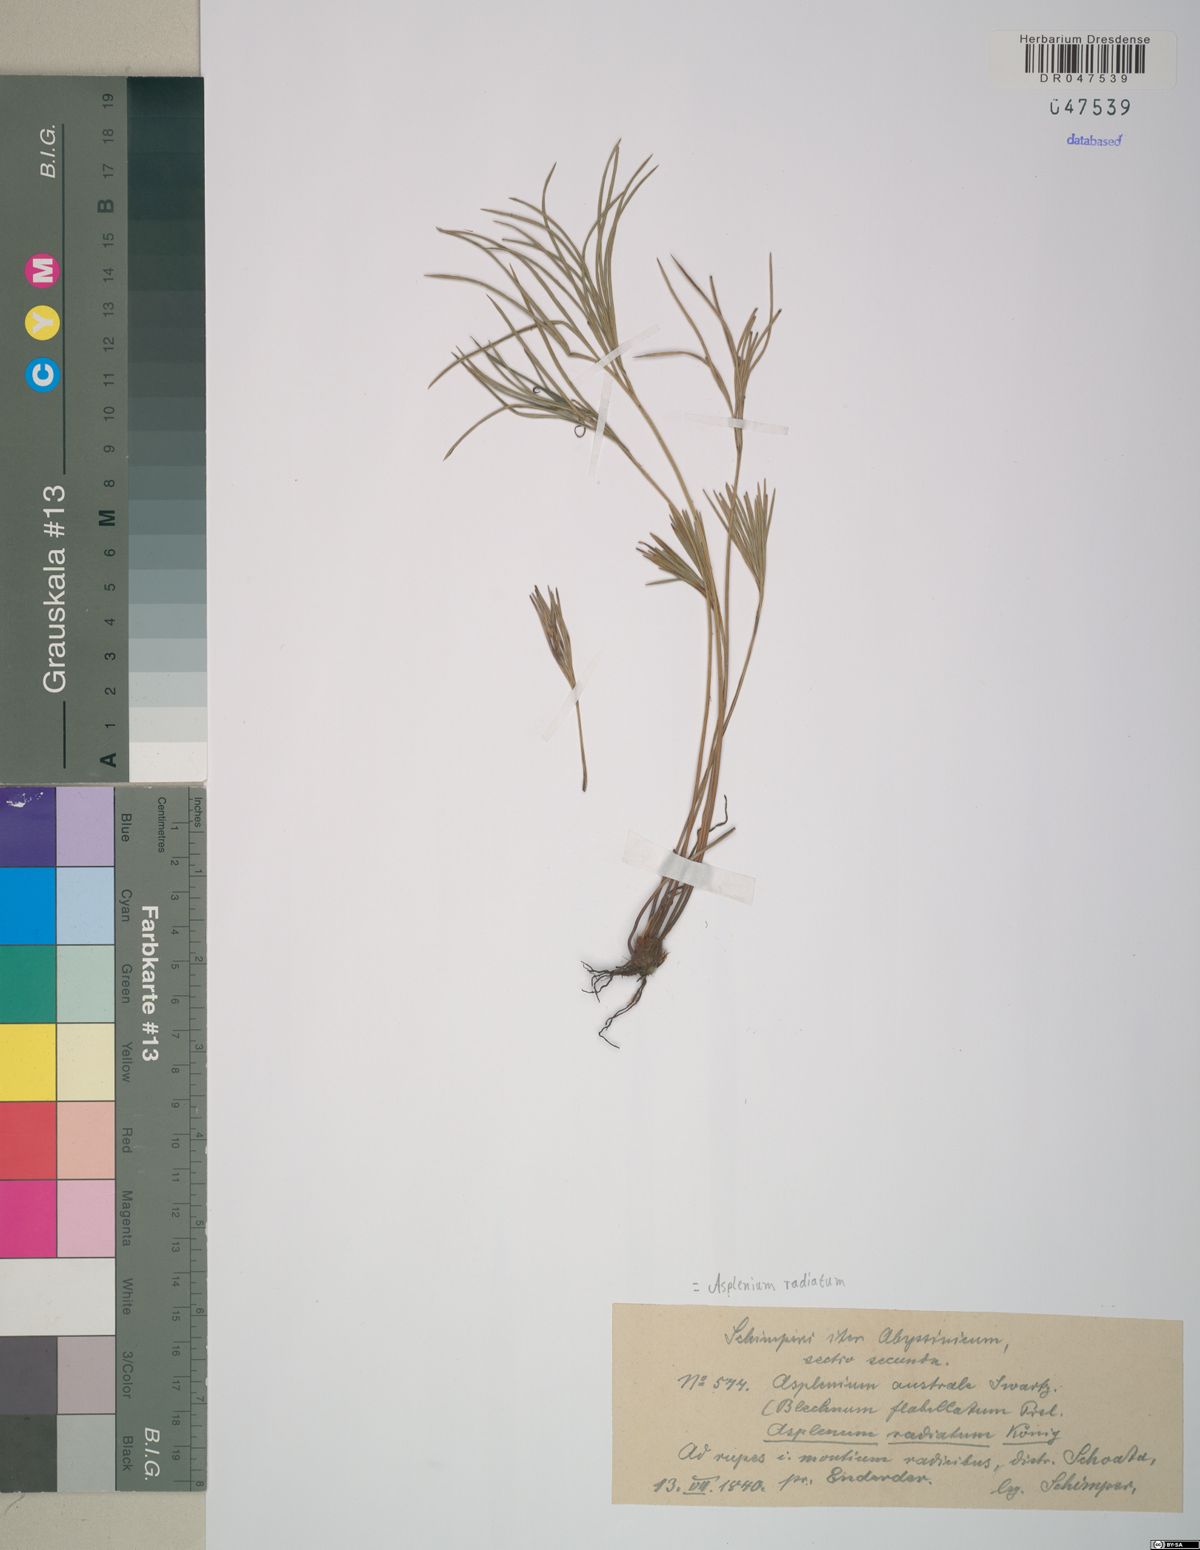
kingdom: Plantae
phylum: Tracheophyta
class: Polypodiopsida
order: Polypodiales
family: Pteridaceae
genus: Actiniopteris
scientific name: Actiniopteris radiata
